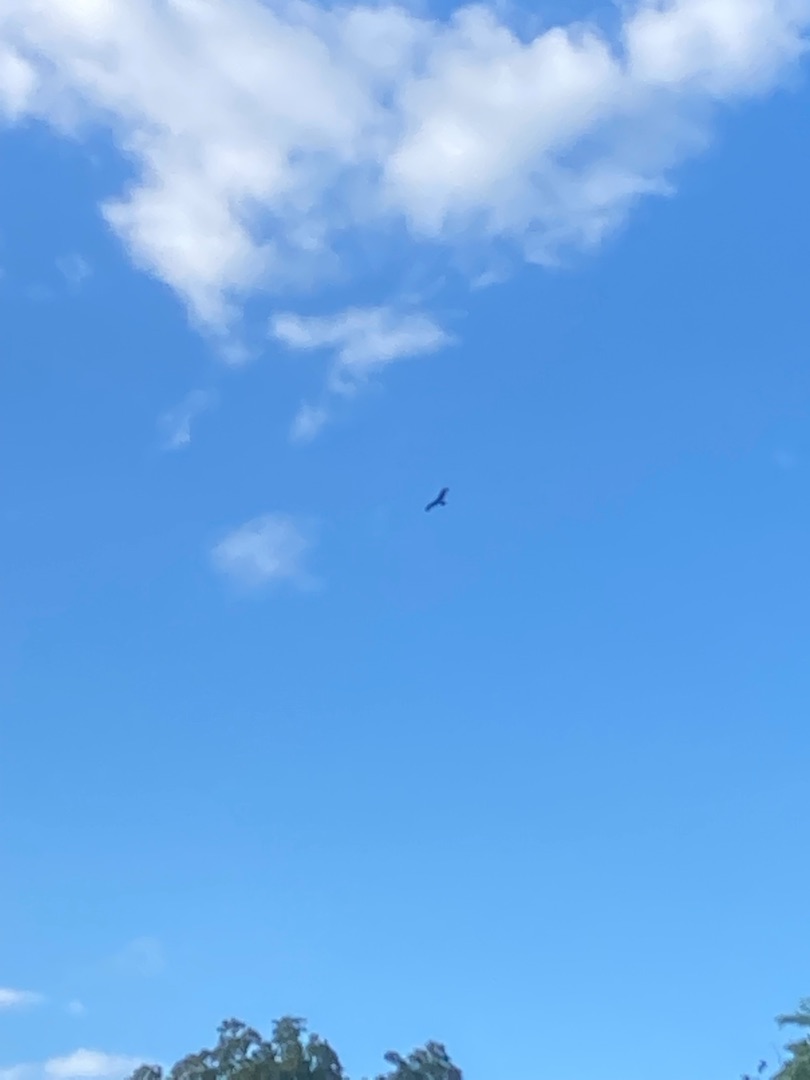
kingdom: Animalia
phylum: Chordata
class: Aves
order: Accipitriformes
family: Accipitridae
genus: Milvus
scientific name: Milvus milvus
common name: Rød glente
